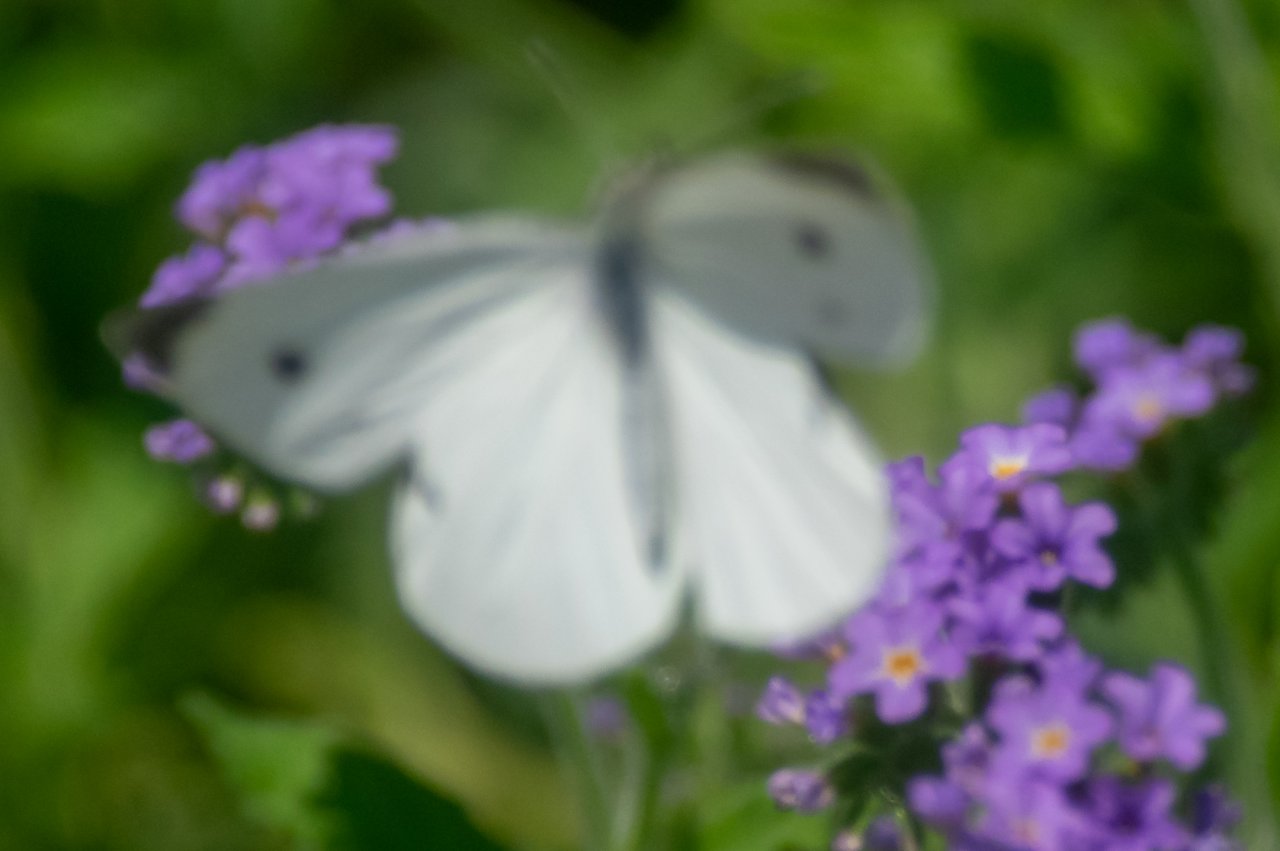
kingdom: Animalia
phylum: Arthropoda
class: Insecta
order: Lepidoptera
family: Pieridae
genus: Pieris
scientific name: Pieris rapae
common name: Cabbage White
